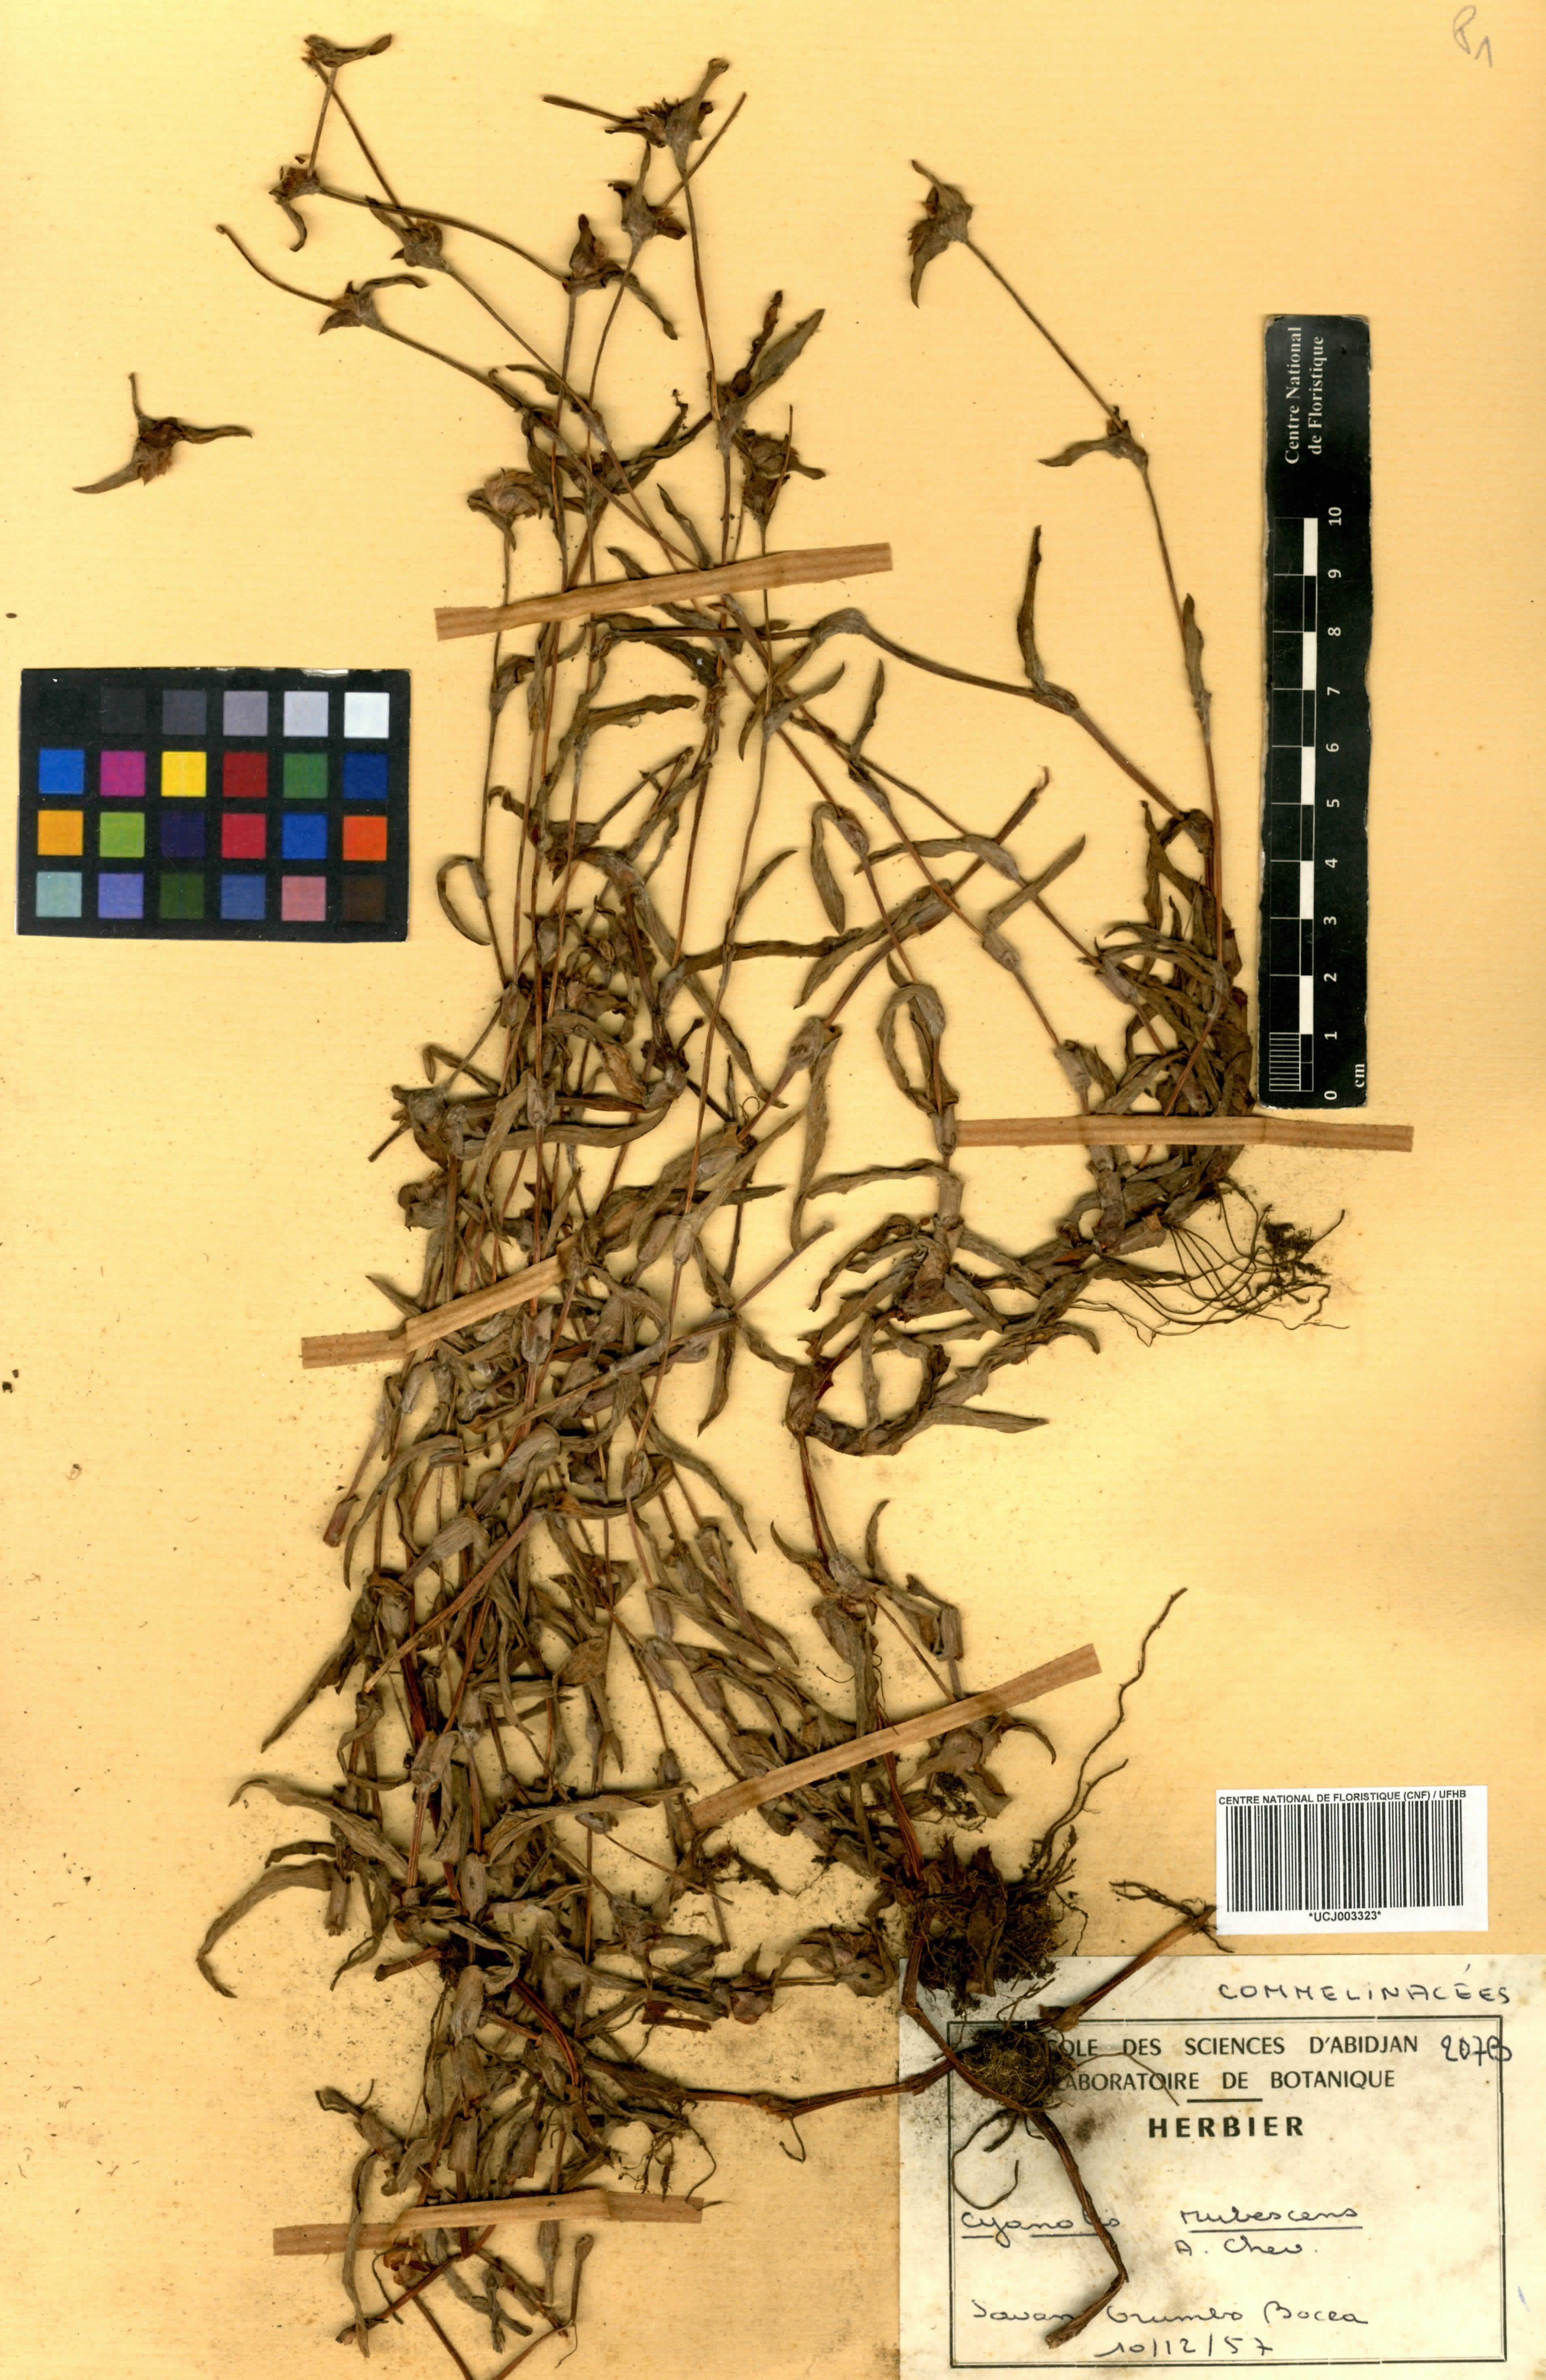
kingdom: Plantae
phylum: Tracheophyta
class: Liliopsida
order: Commelinales
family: Commelinaceae
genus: Cyanotis
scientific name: Cyanotis lanata
